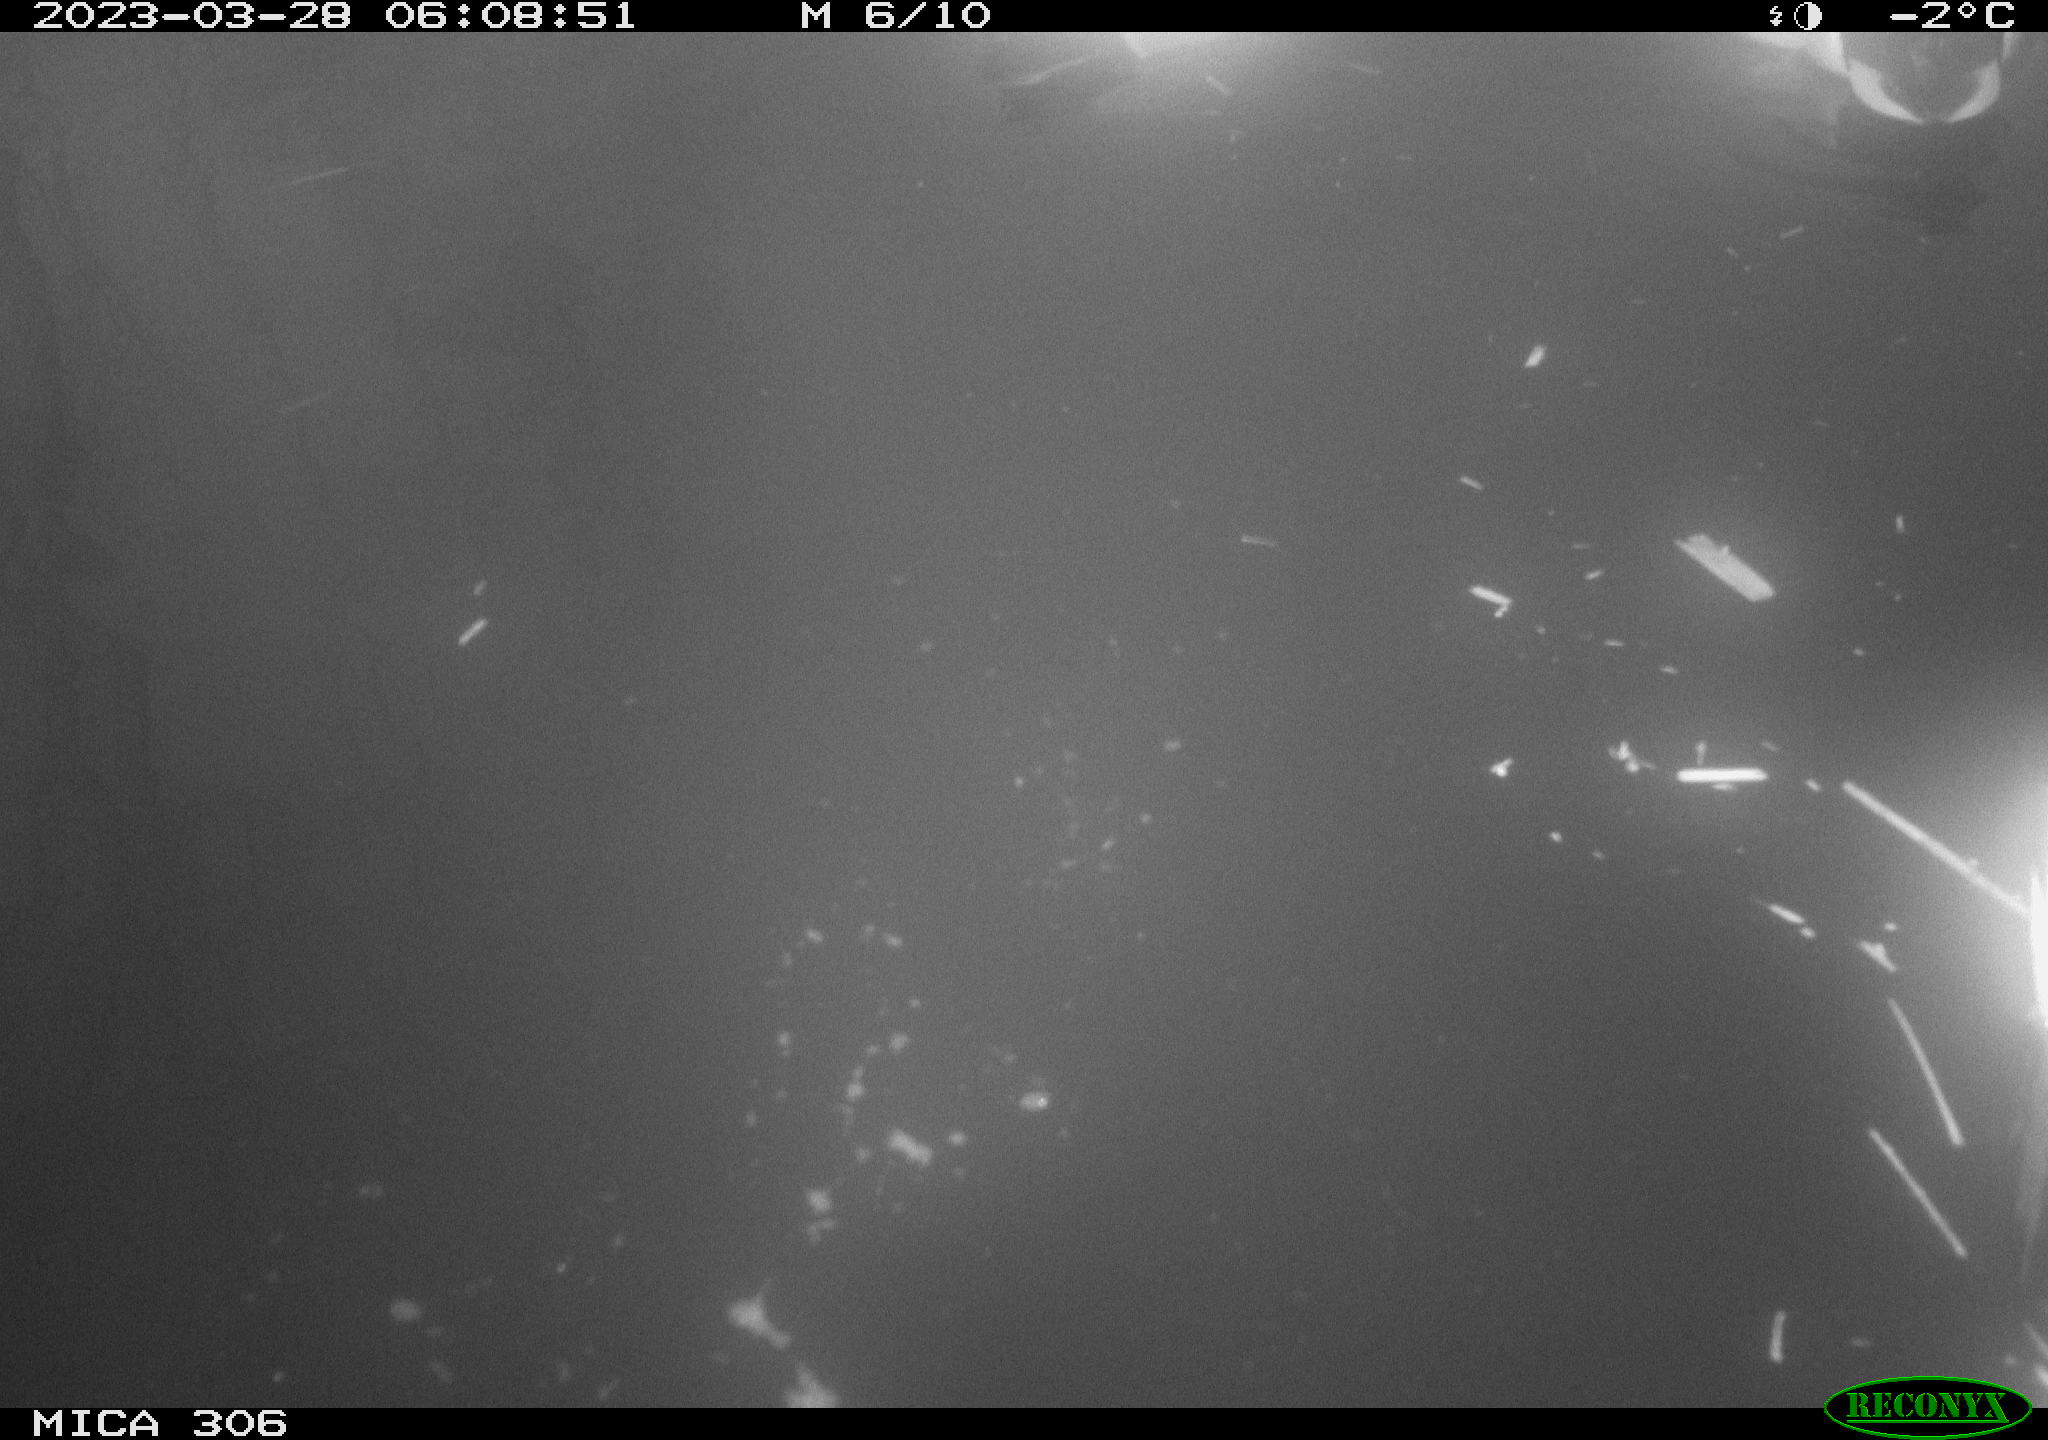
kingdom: Animalia
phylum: Chordata
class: Aves
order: Anseriformes
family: Anatidae
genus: Anas
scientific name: Anas
